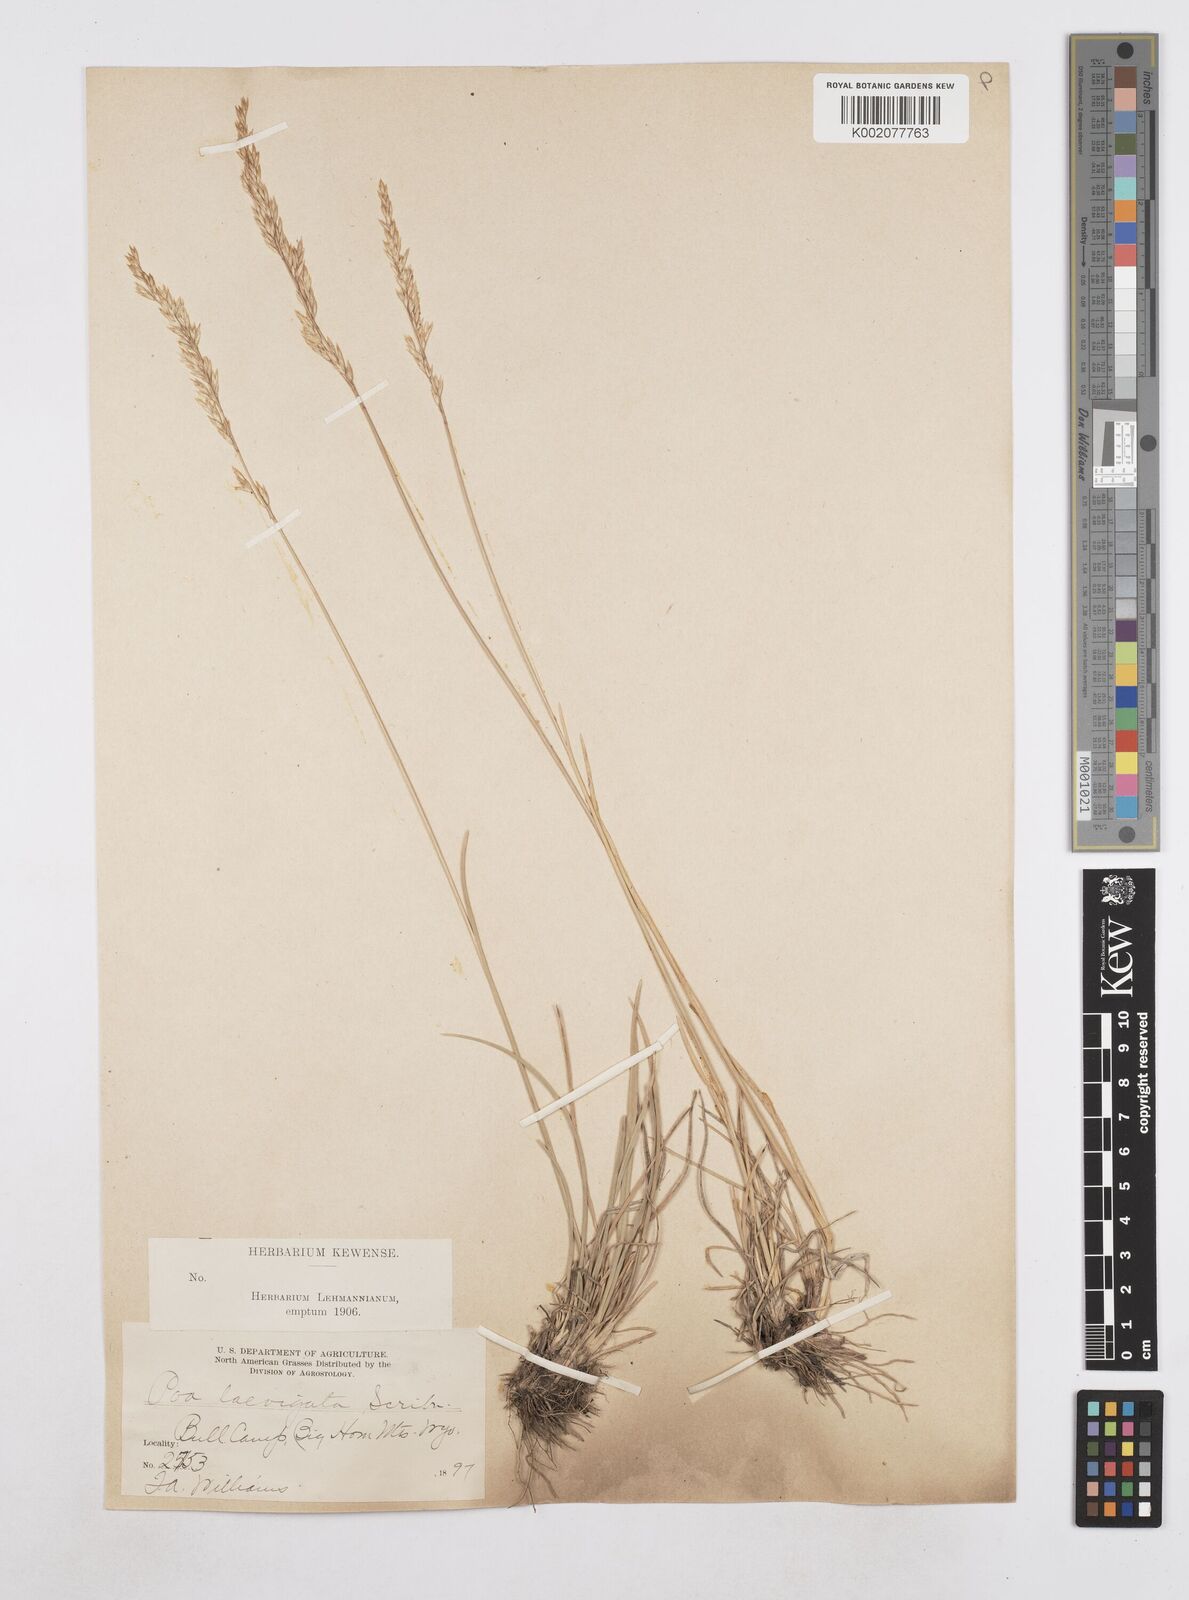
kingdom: Plantae
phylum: Tracheophyta
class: Liliopsida
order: Poales
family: Poaceae
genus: Poa
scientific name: Poa secunda
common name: Sandberg bluegrass
